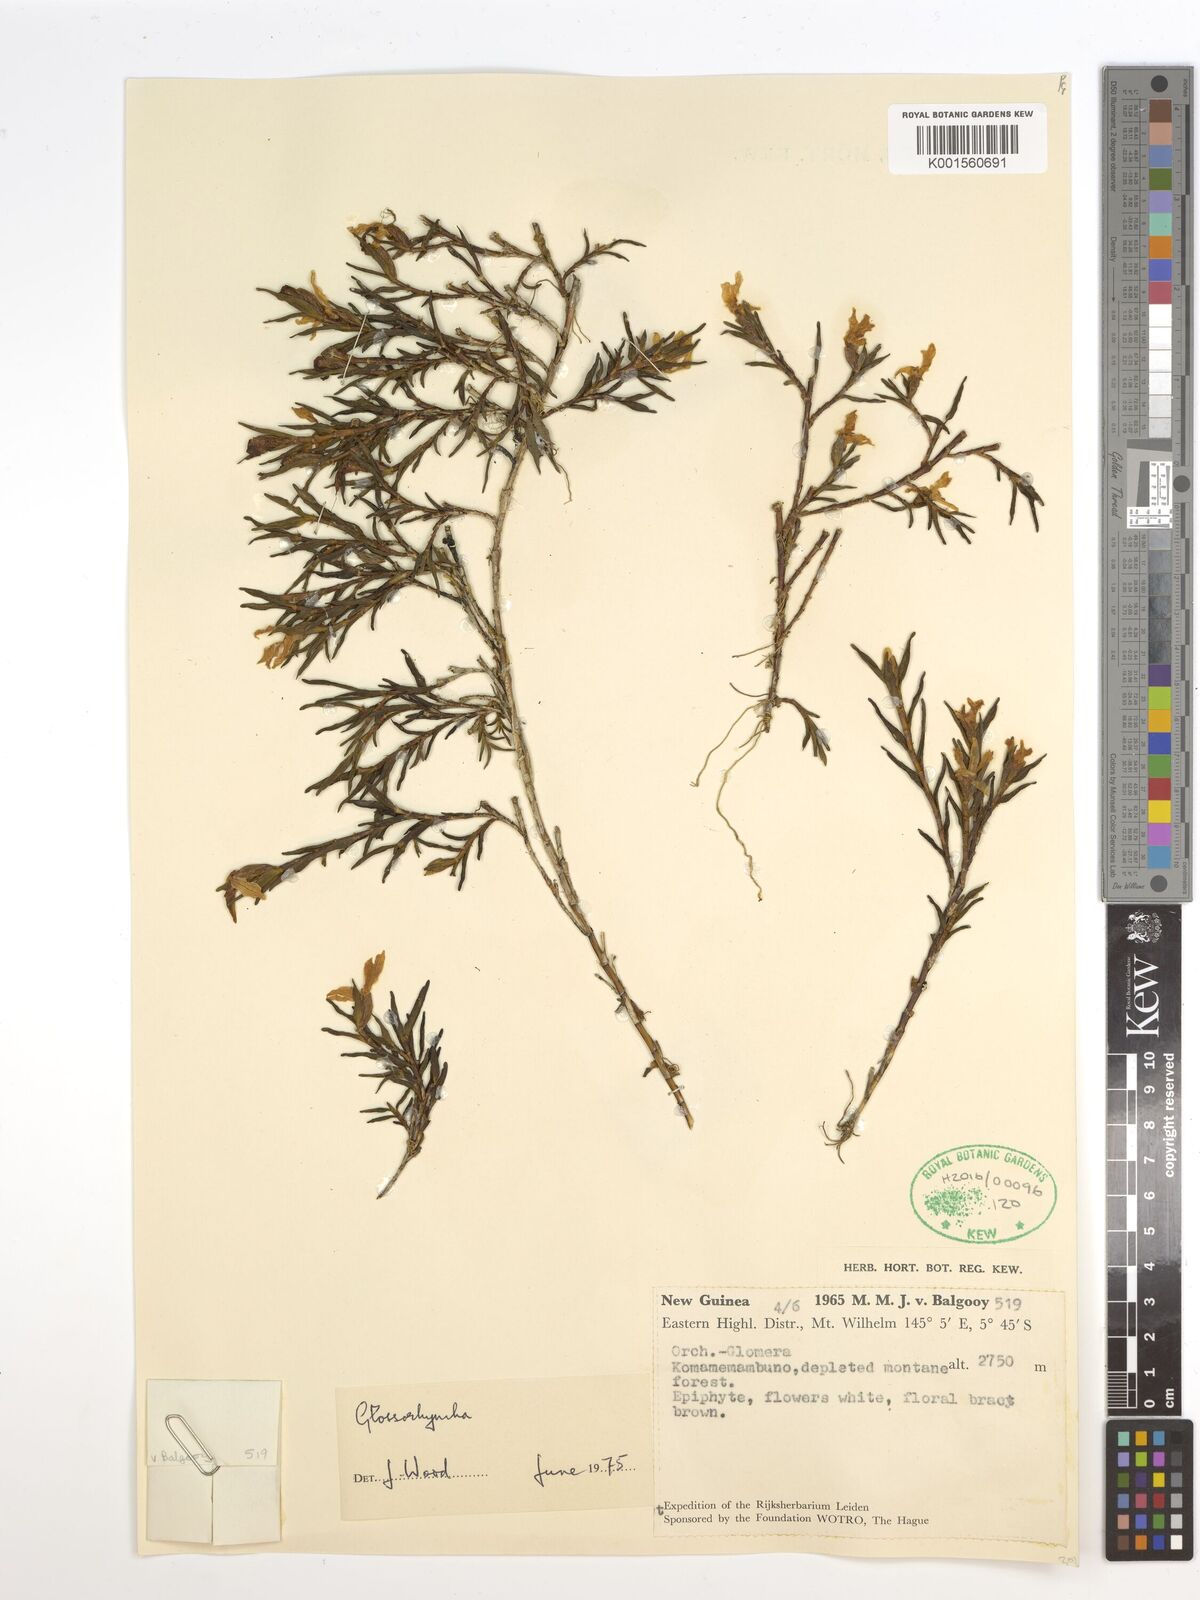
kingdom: Plantae
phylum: Tracheophyta
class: Liliopsida
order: Asparagales
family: Orchidaceae
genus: Glomera
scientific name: Glomera
